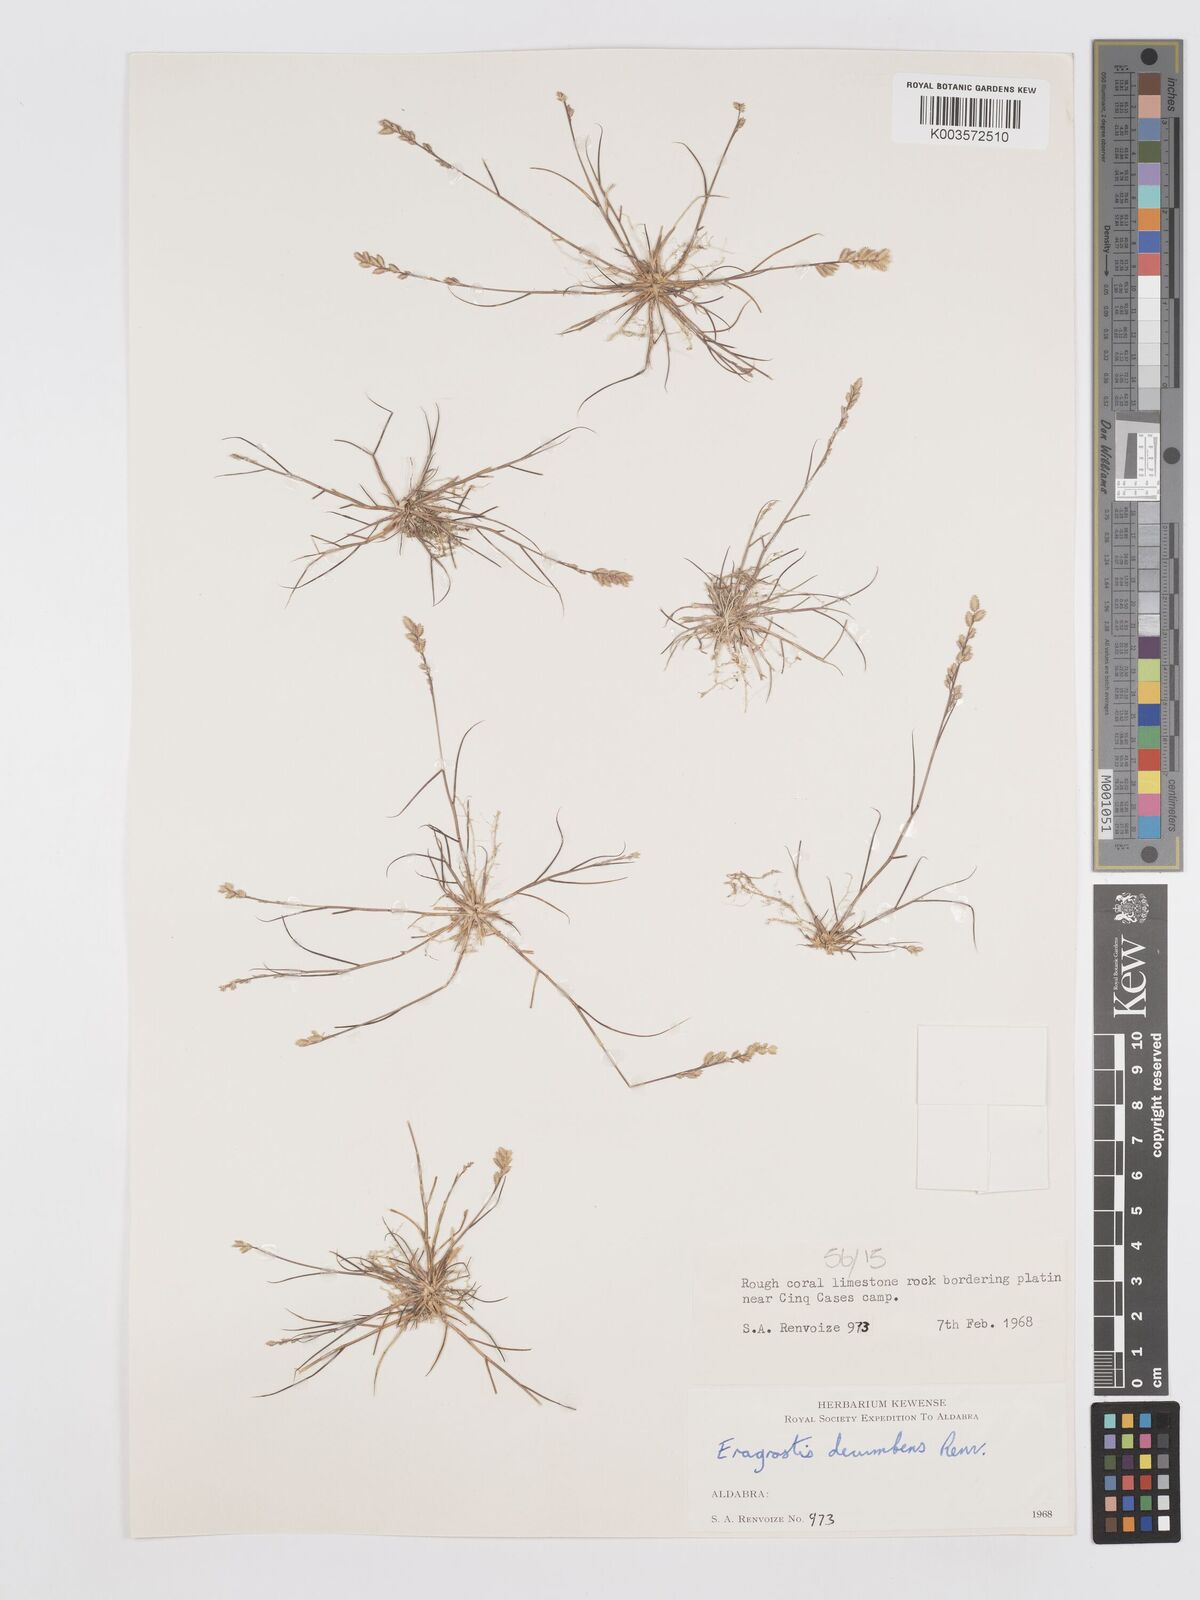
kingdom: Plantae
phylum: Tracheophyta
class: Liliopsida
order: Poales
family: Poaceae
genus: Eragrostis
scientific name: Eragrostis decumbens
